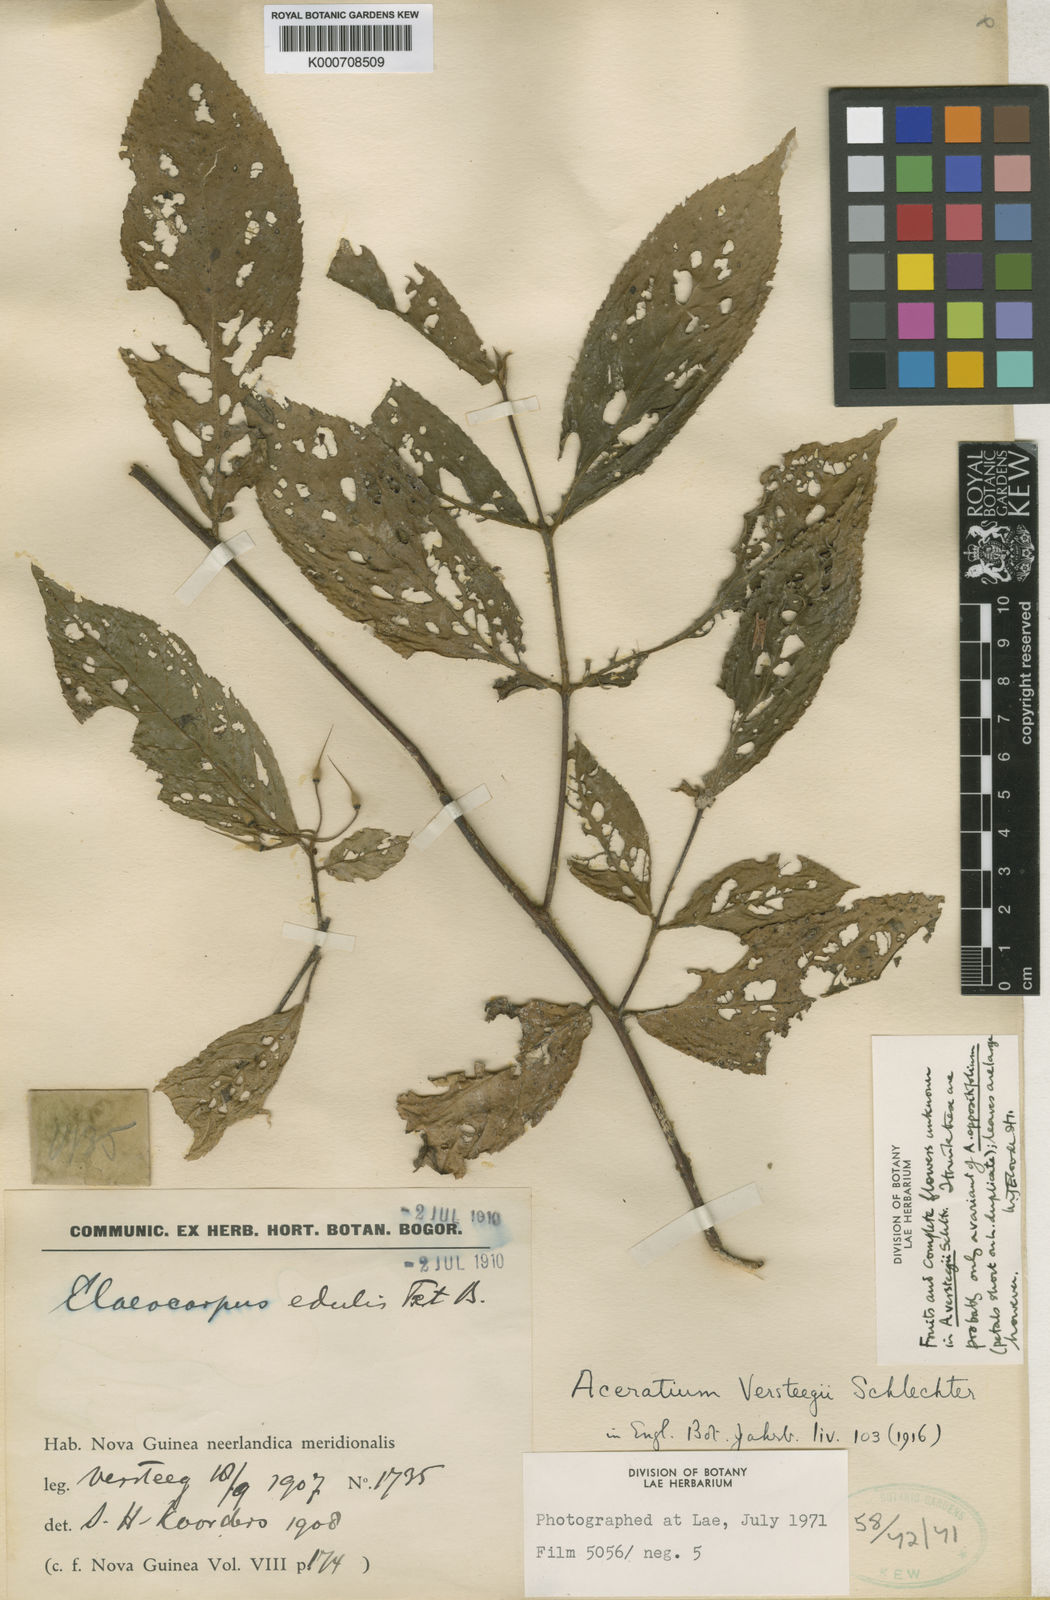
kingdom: Plantae
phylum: Tracheophyta
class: Magnoliopsida
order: Oxalidales
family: Elaeocarpaceae
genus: Aceratium
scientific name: Aceratium oppositifolium
